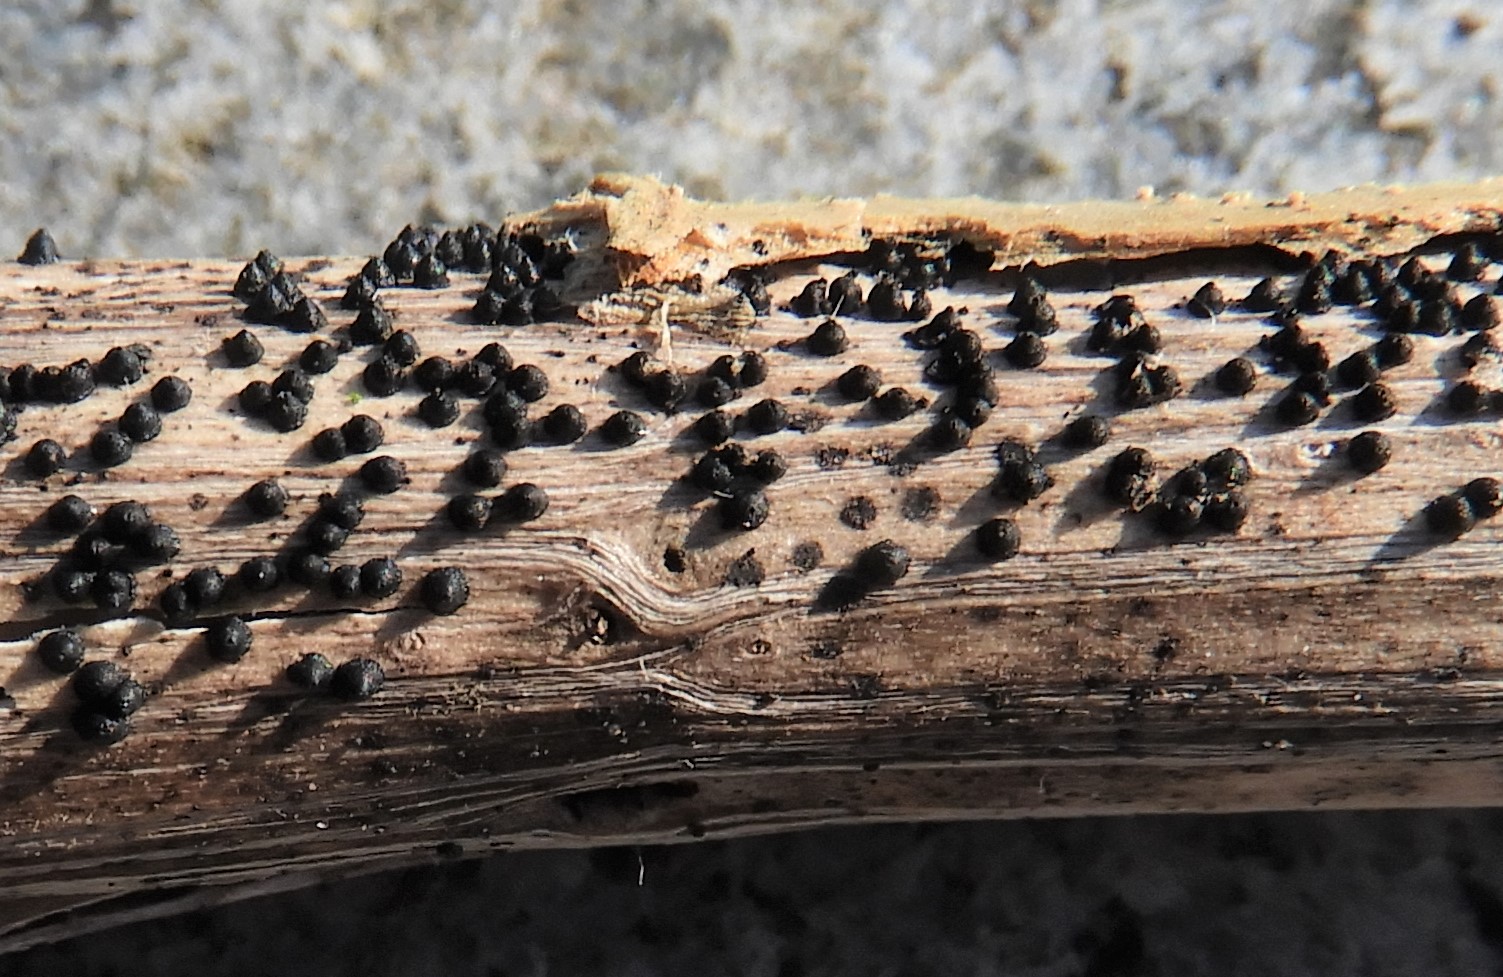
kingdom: Fungi
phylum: Ascomycota
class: Dothideomycetes
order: Pleosporales
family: Leptosphaeriaceae
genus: Leptosphaeria
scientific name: Leptosphaeria
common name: kulkegle
